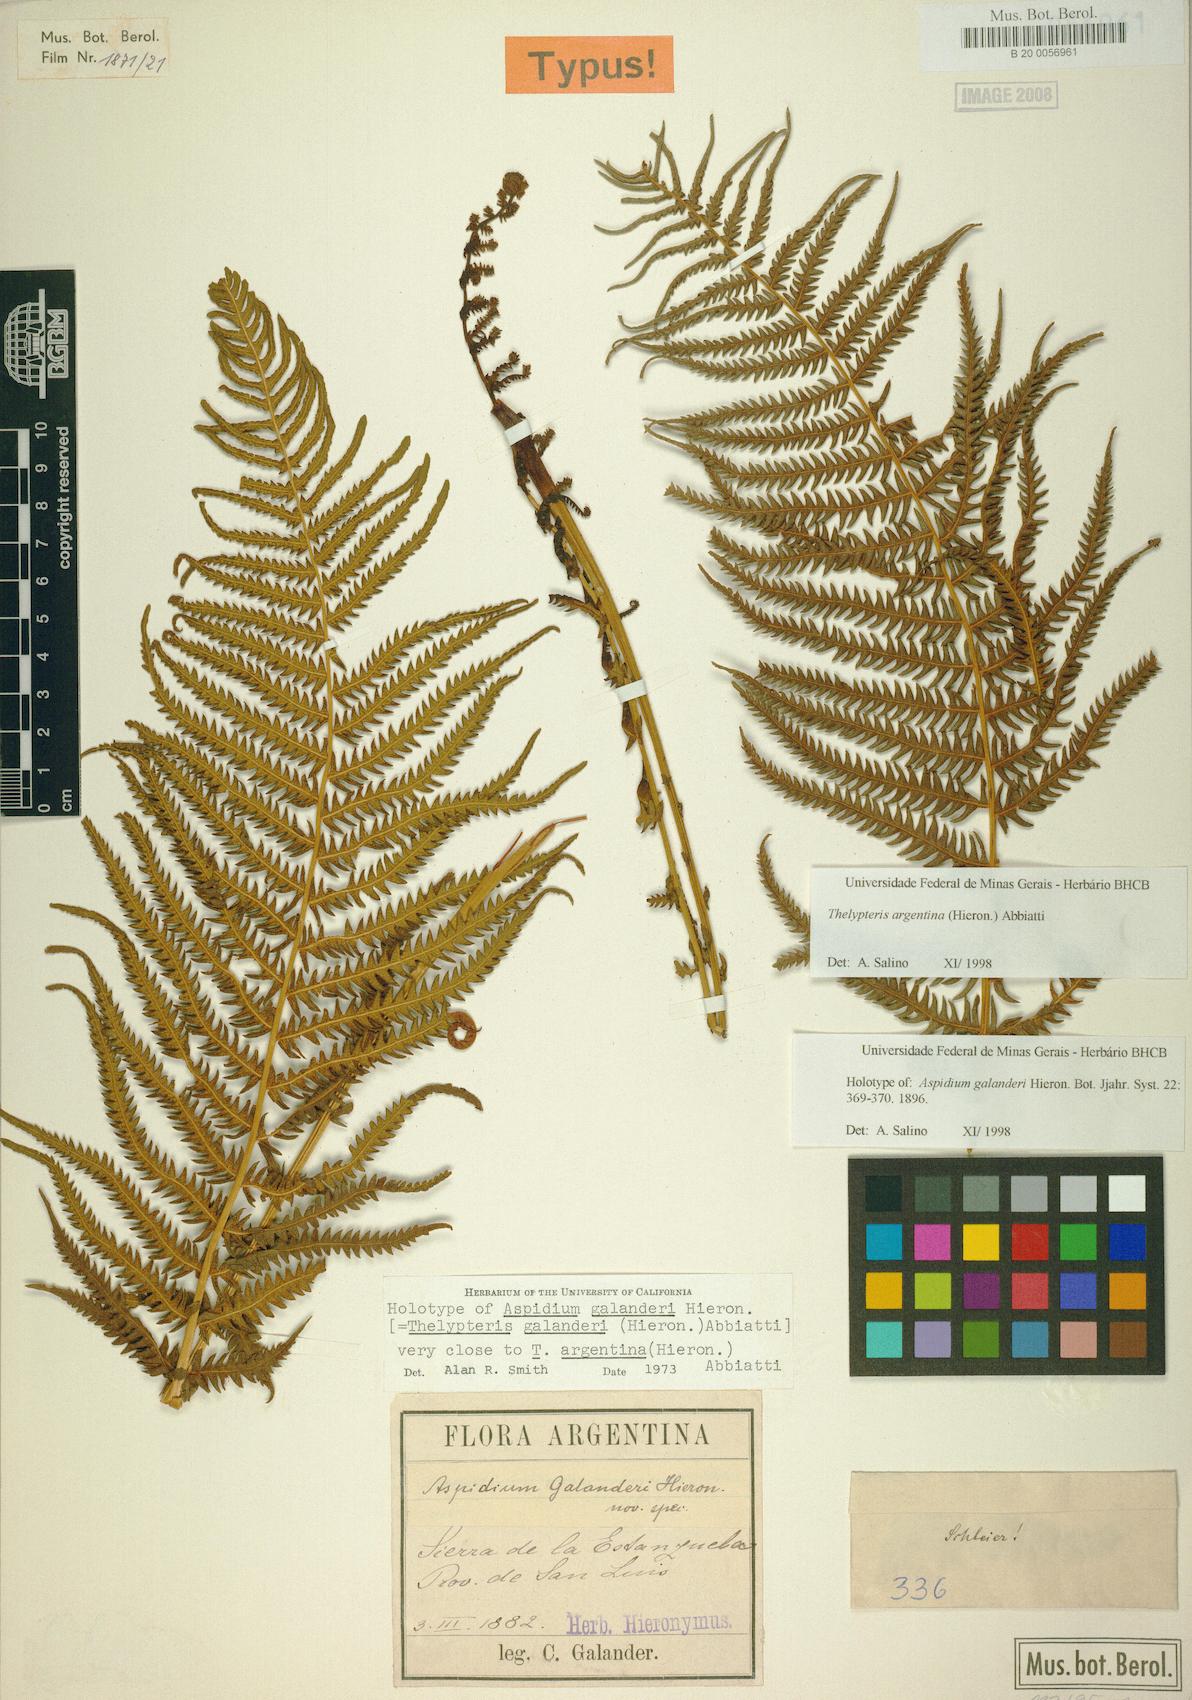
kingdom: Plantae
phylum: Tracheophyta
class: Polypodiopsida
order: Polypodiales
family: Thelypteridaceae
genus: Amauropelta
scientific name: Amauropelta argentina
